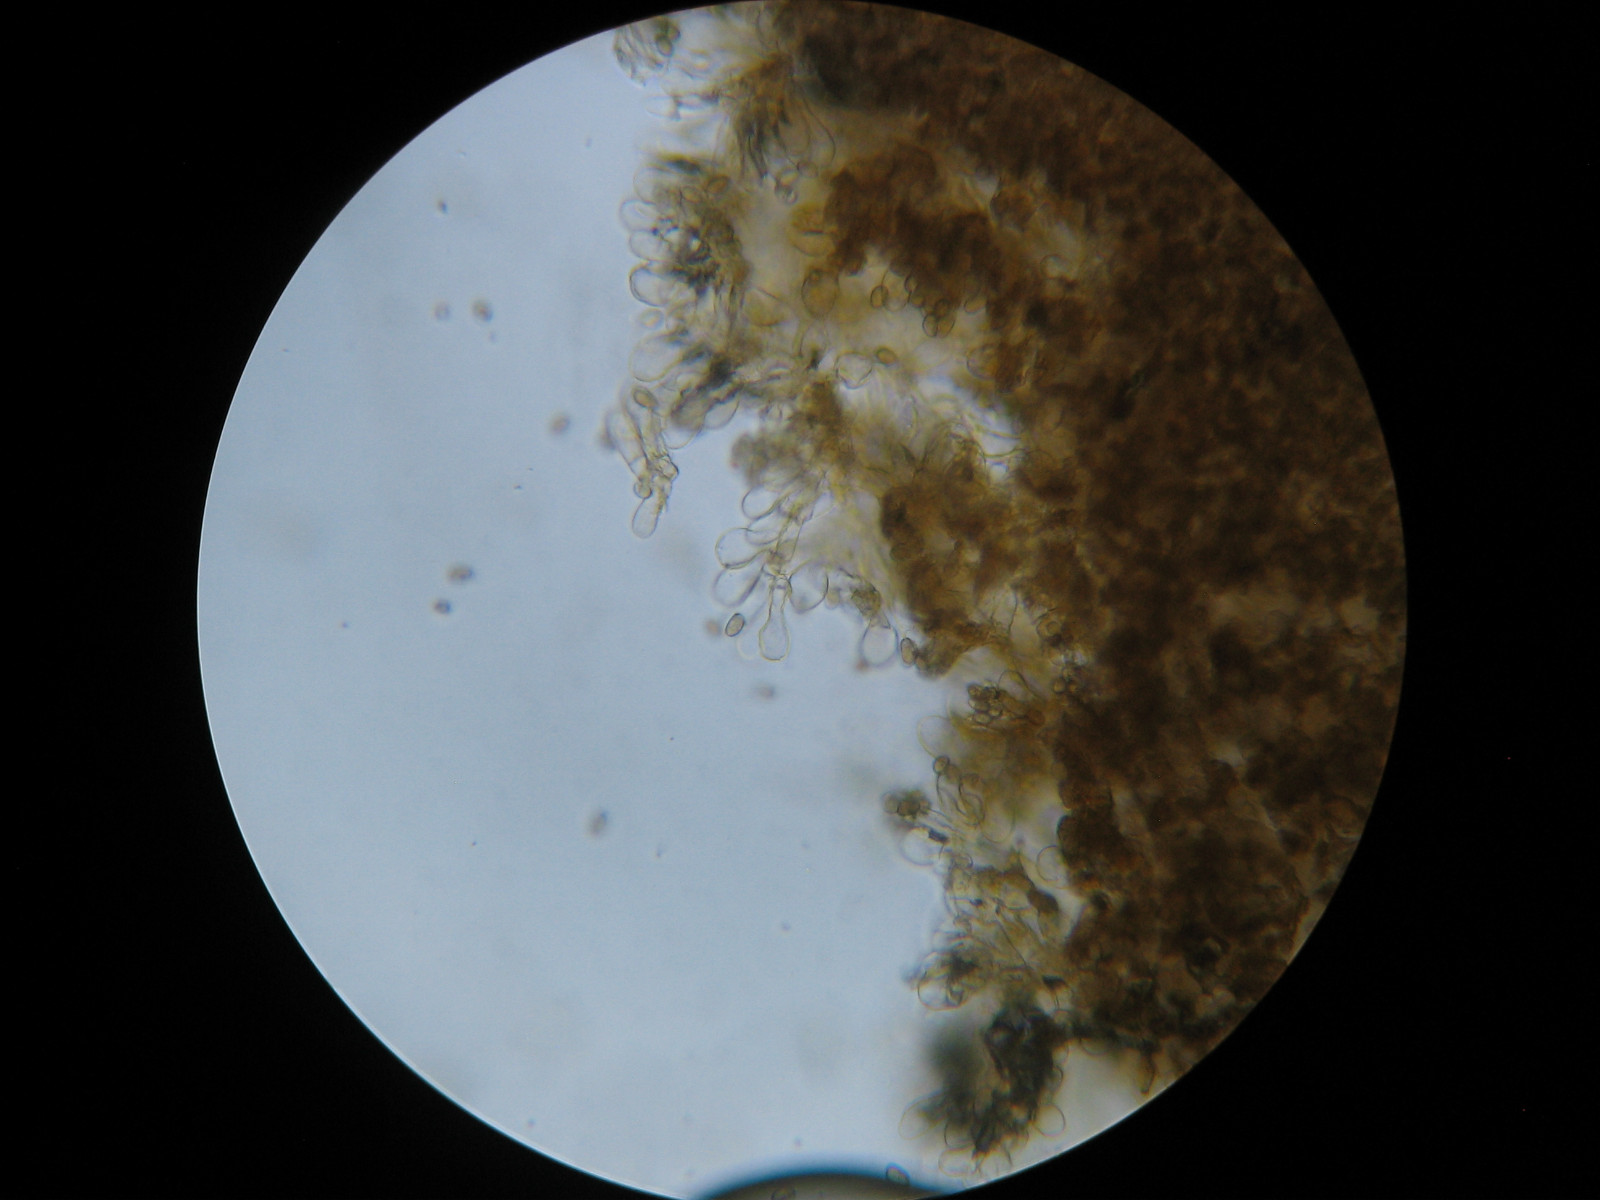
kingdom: Fungi
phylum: Basidiomycota
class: Agaricomycetes
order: Agaricales
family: Inocybaceae
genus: Inocybe
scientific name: Inocybe dulcamara
